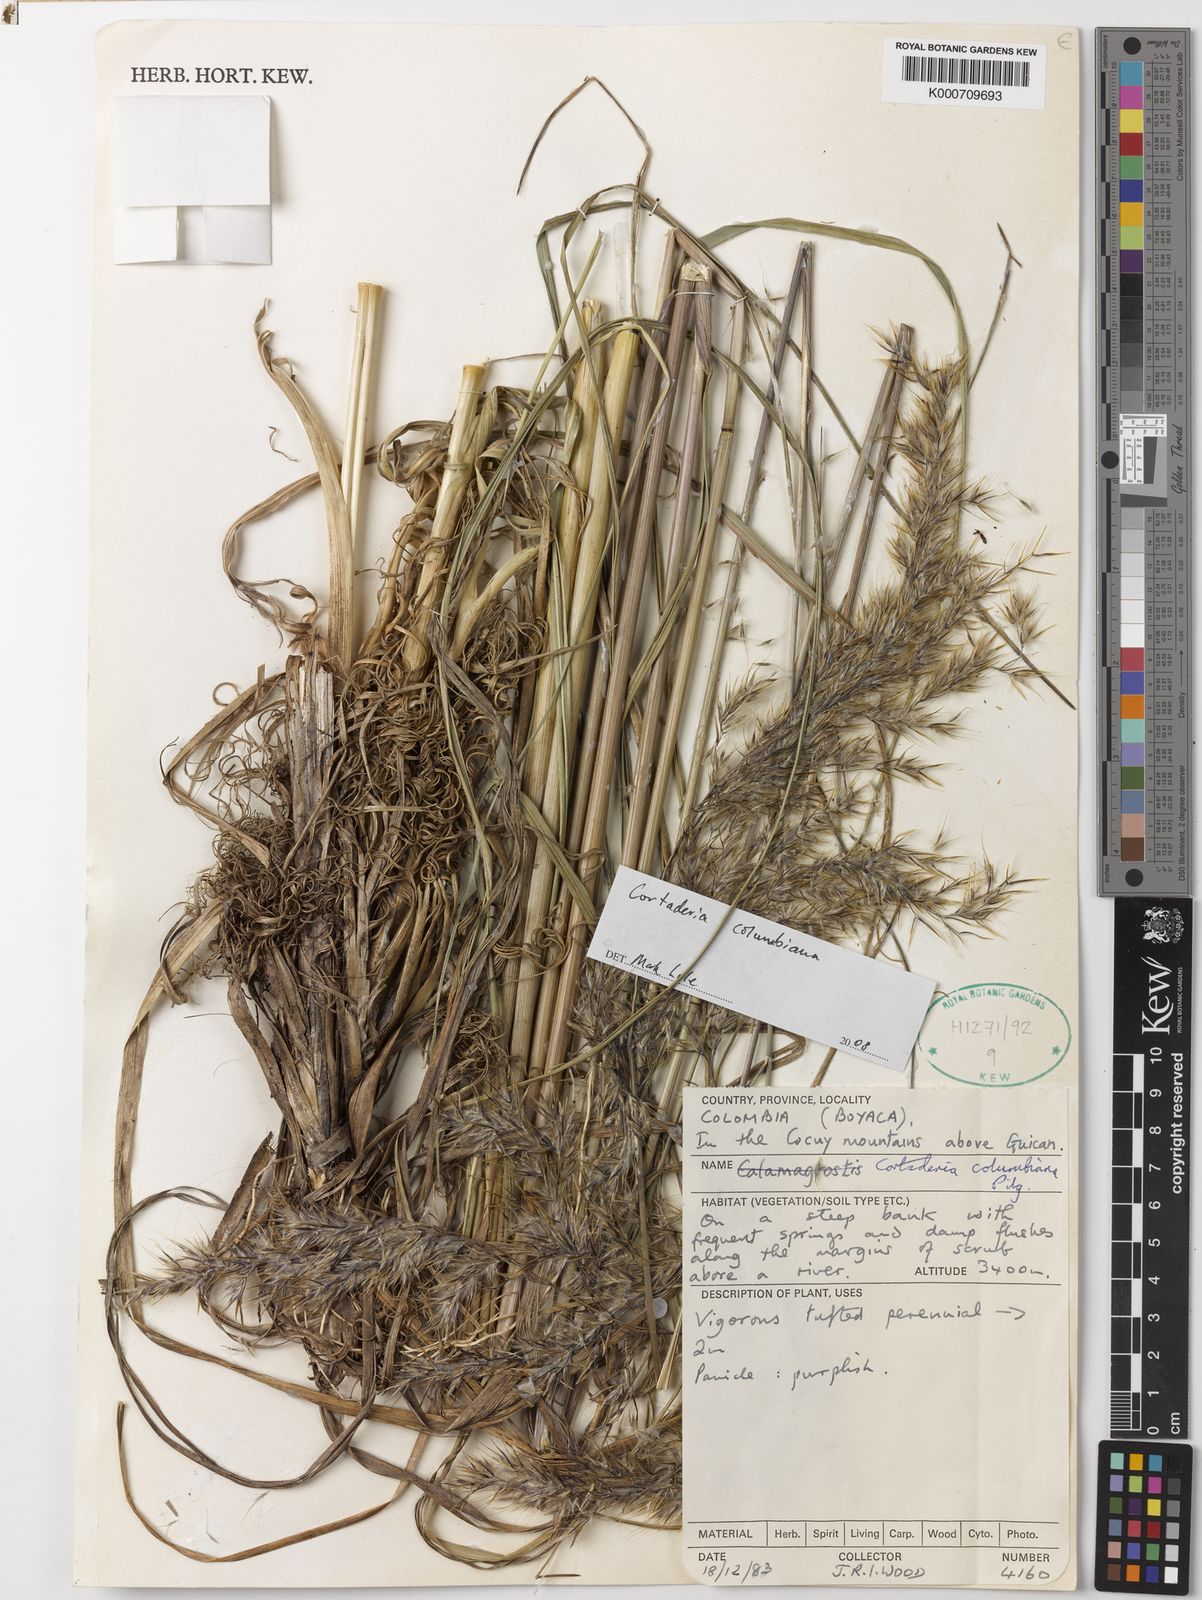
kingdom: Plantae
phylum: Tracheophyta
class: Liliopsida
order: Poales
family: Poaceae
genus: Cortaderia
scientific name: Cortaderia columbiana
